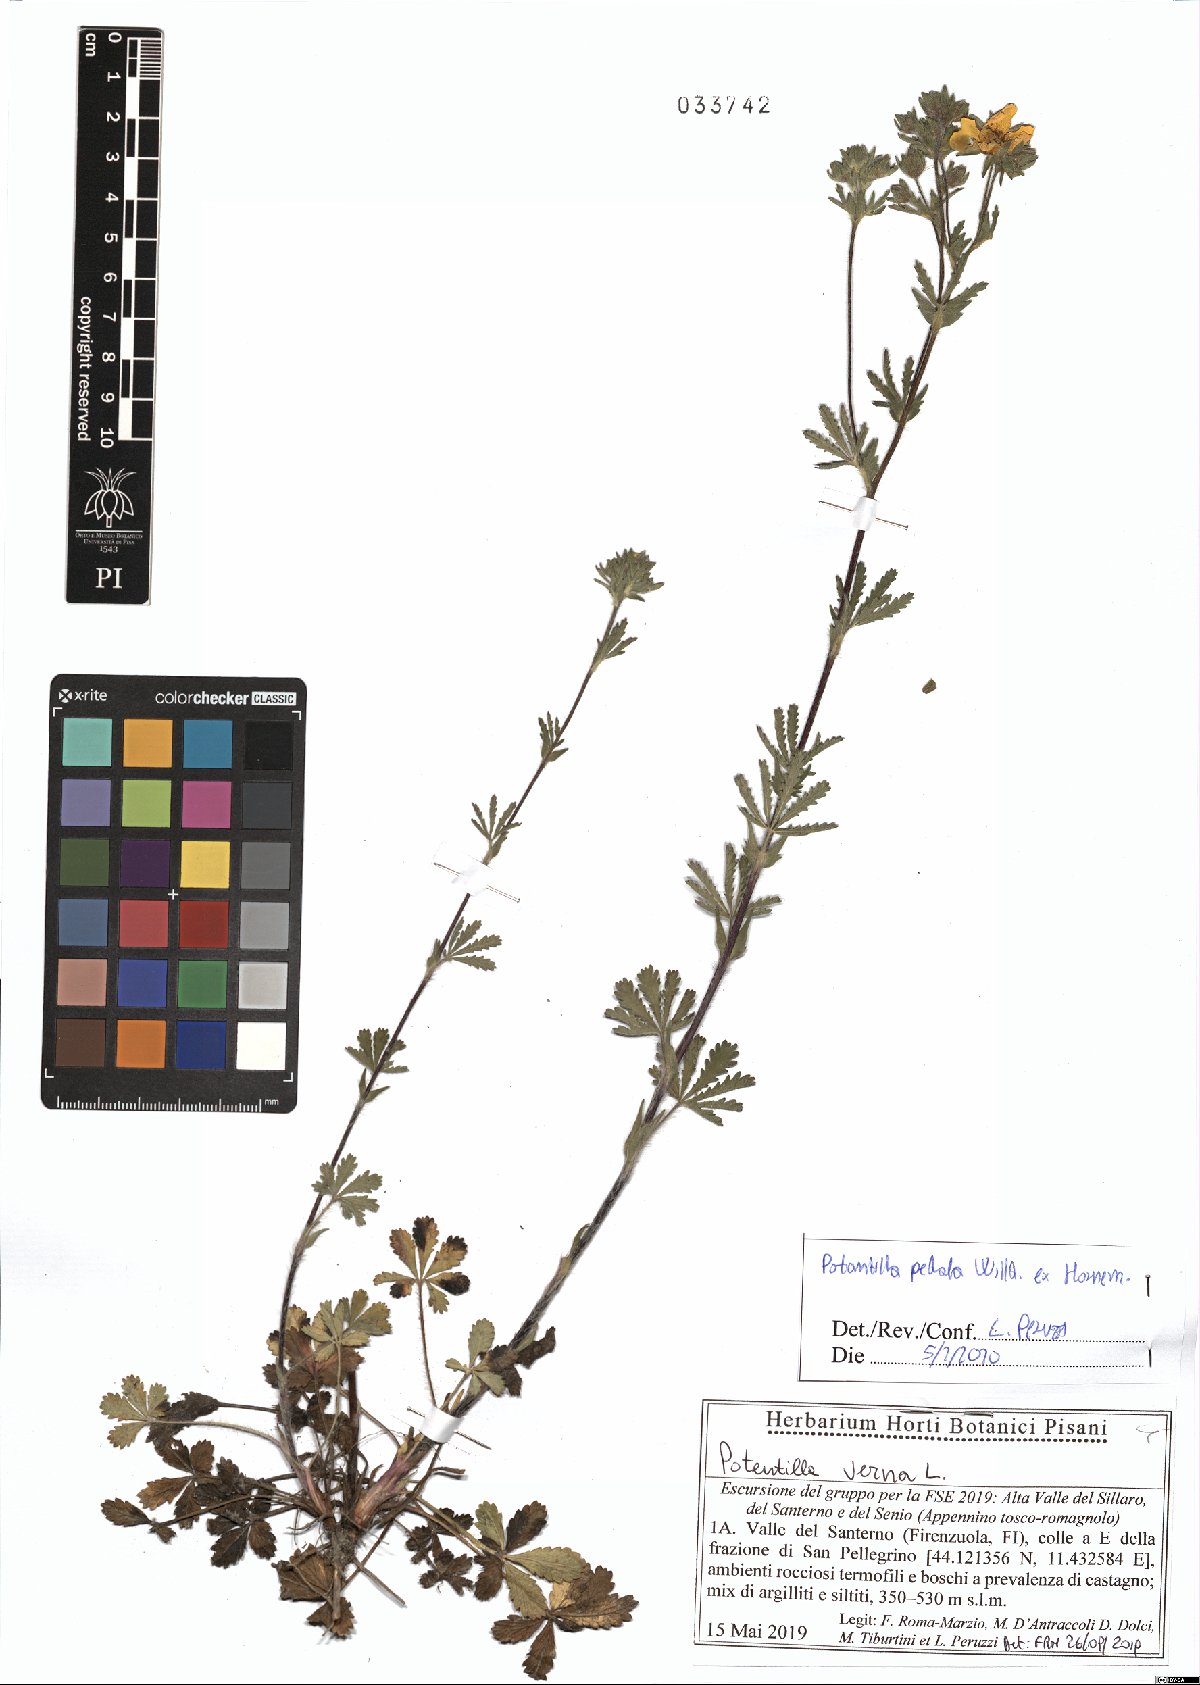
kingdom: Plantae
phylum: Tracheophyta
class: Magnoliopsida
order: Rosales
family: Rosaceae
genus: Potentilla
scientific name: Potentilla pedata
